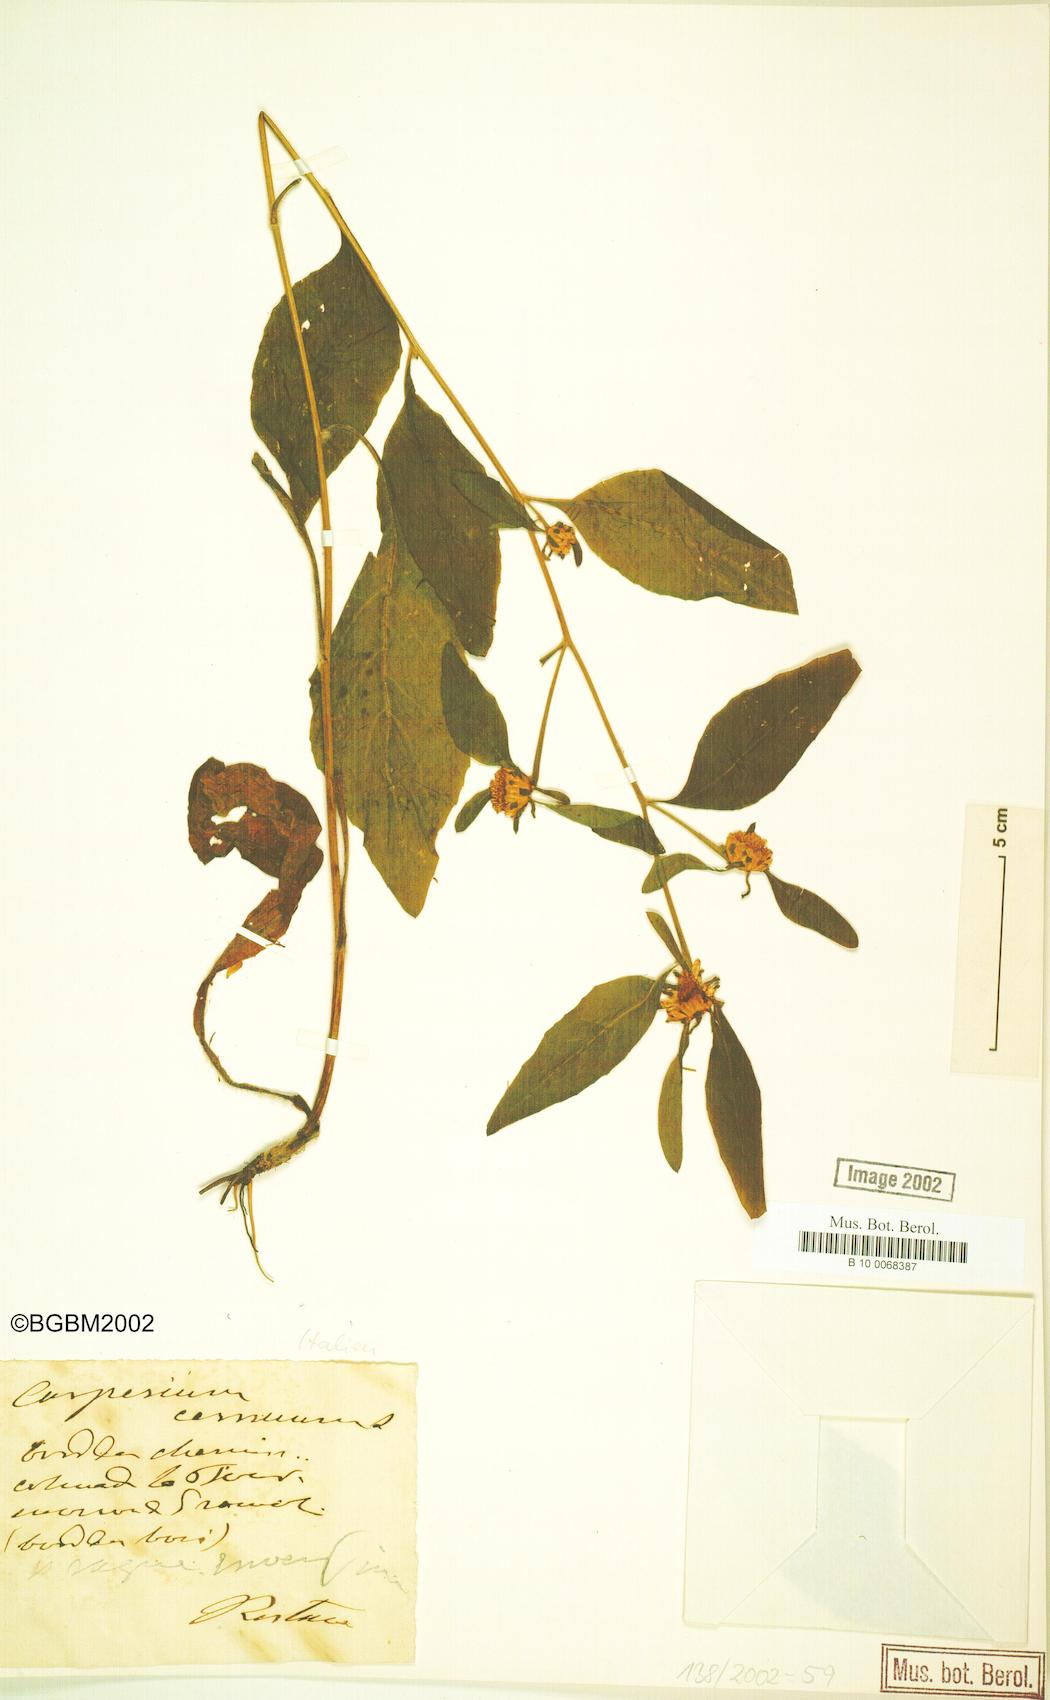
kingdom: Plantae
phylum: Tracheophyta
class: Magnoliopsida
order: Asterales
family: Asteraceae
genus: Carpesium
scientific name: Carpesium cernuum
